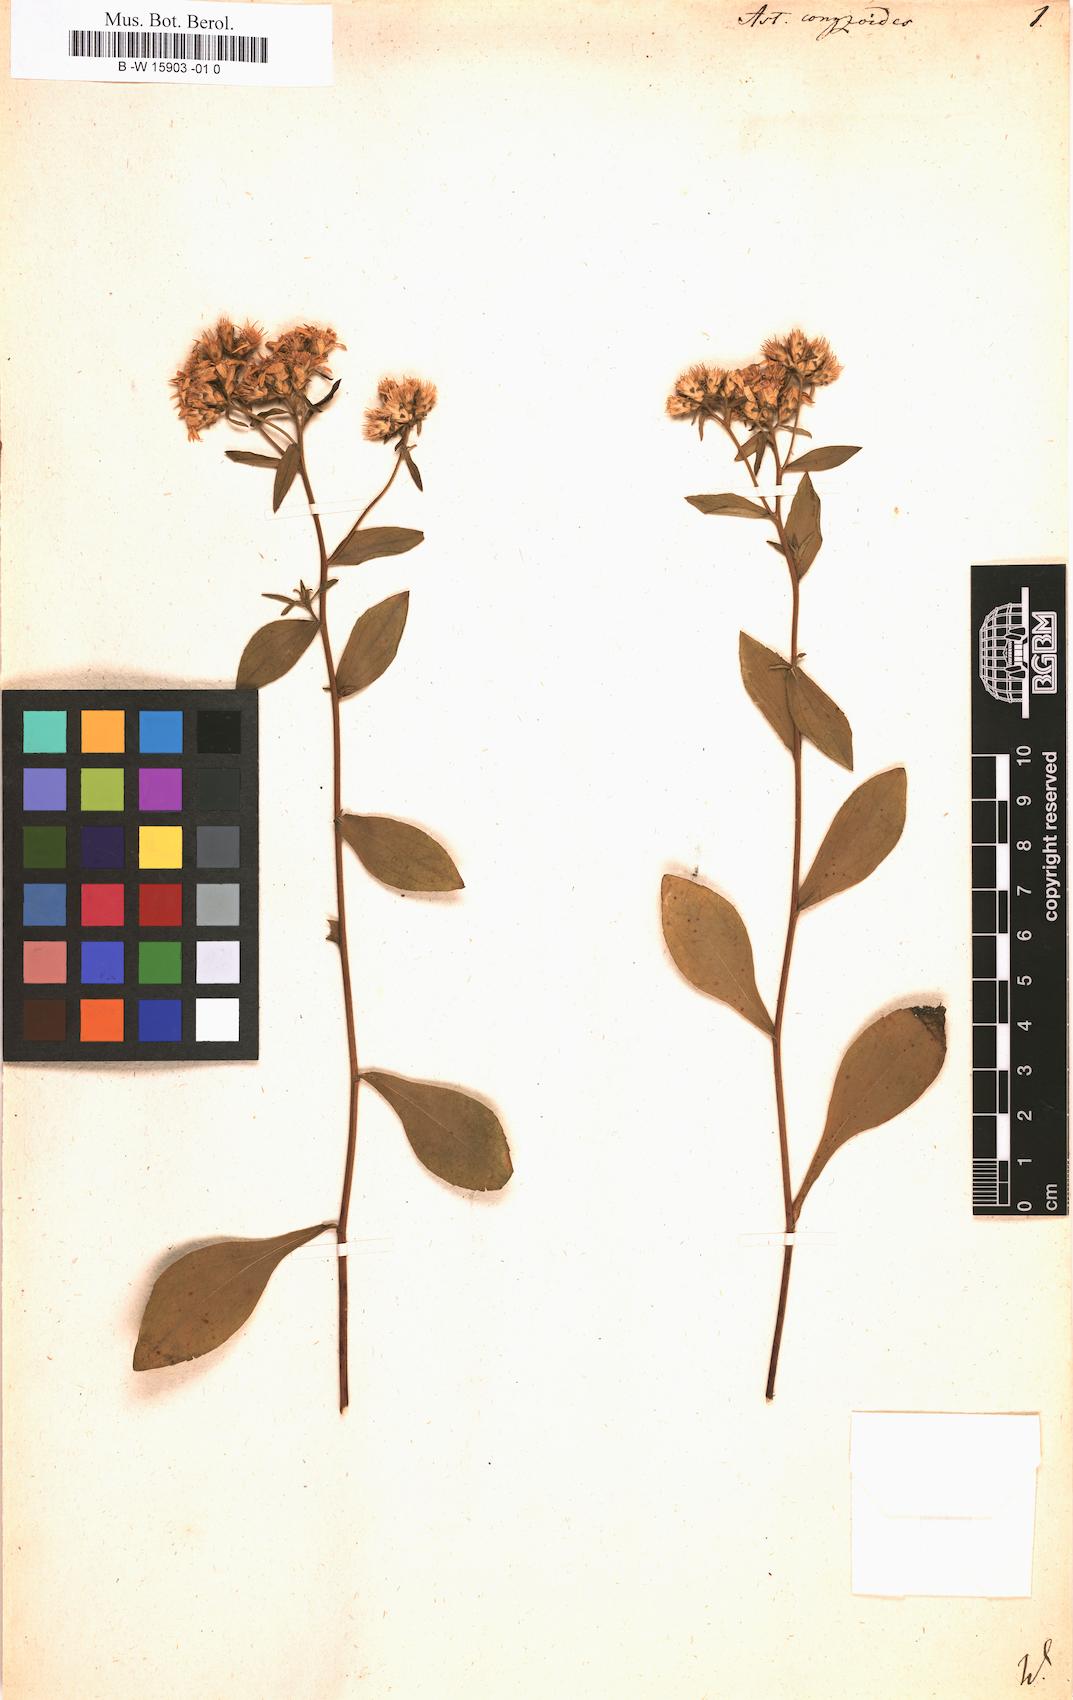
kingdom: Plantae
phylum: Tracheophyta
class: Magnoliopsida
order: Asterales
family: Asteraceae
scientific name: Asteraceae
